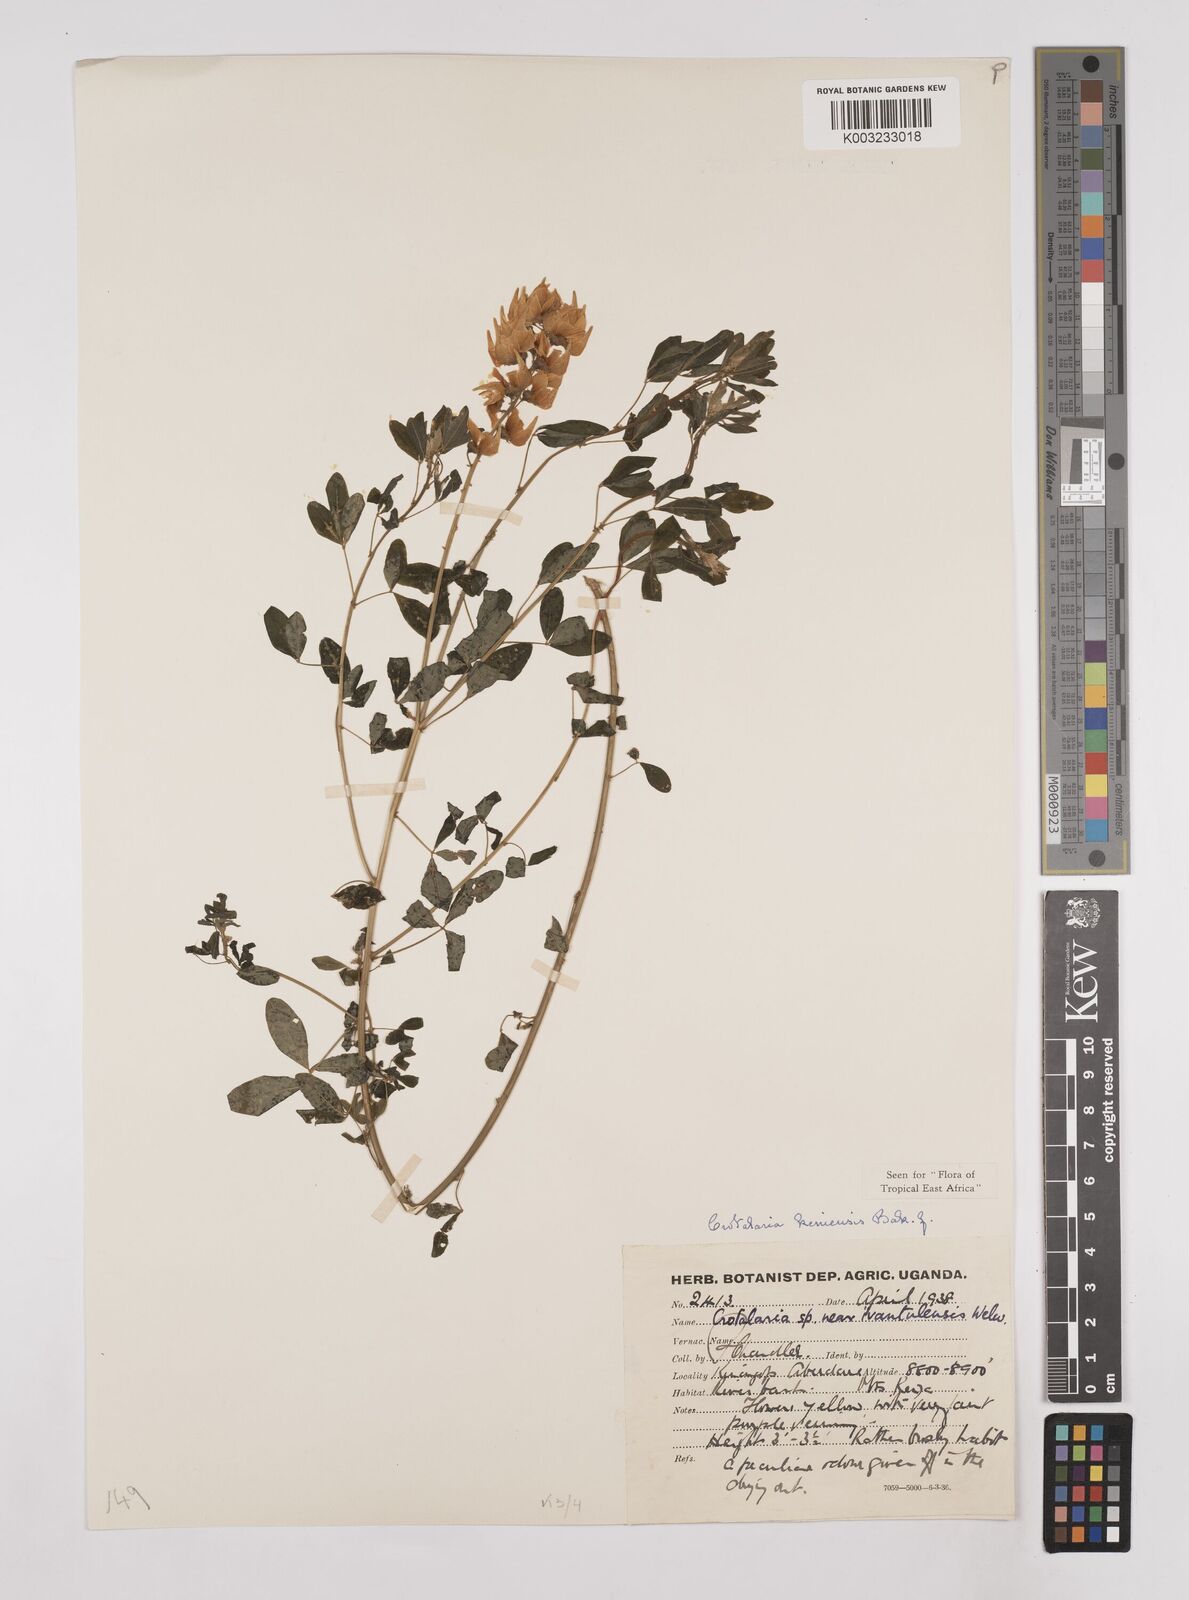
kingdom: Plantae
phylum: Tracheophyta
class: Magnoliopsida
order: Fabales
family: Fabaceae
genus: Crotalaria
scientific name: Crotalaria keniensis
